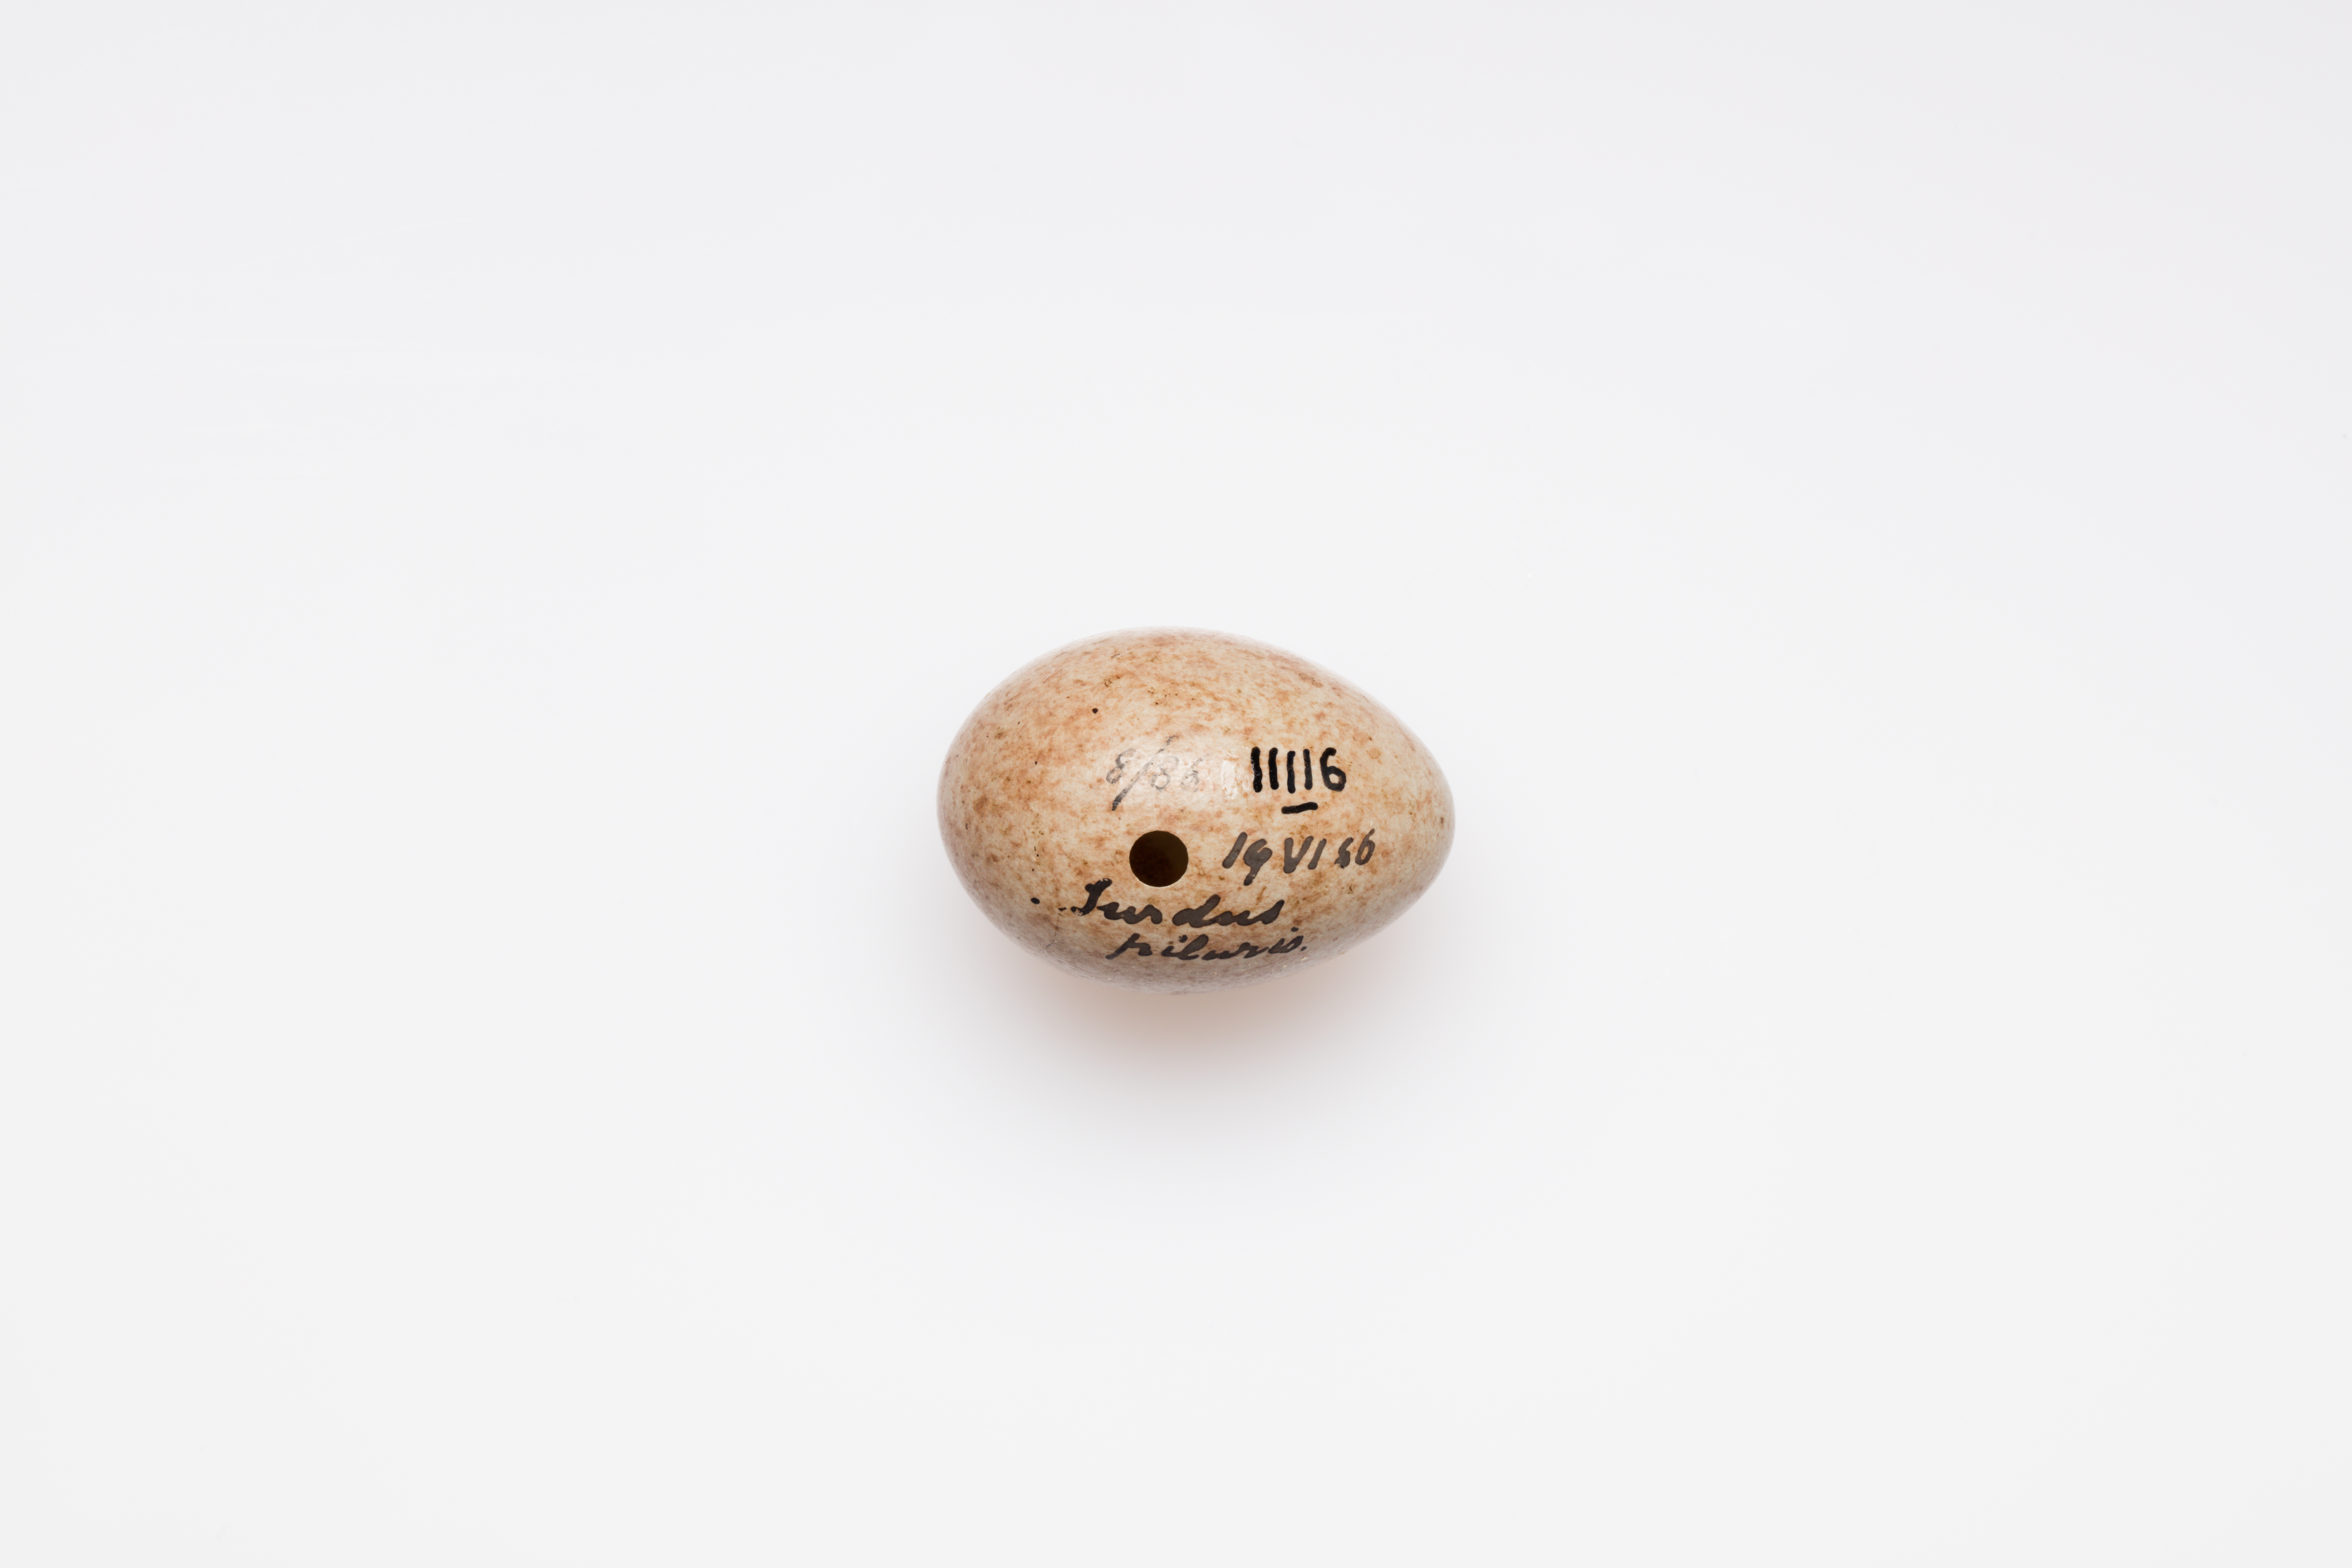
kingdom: Animalia
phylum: Chordata
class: Aves
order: Passeriformes
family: Turdidae
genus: Turdus
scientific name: Turdus pilaris
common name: Fieldfare
